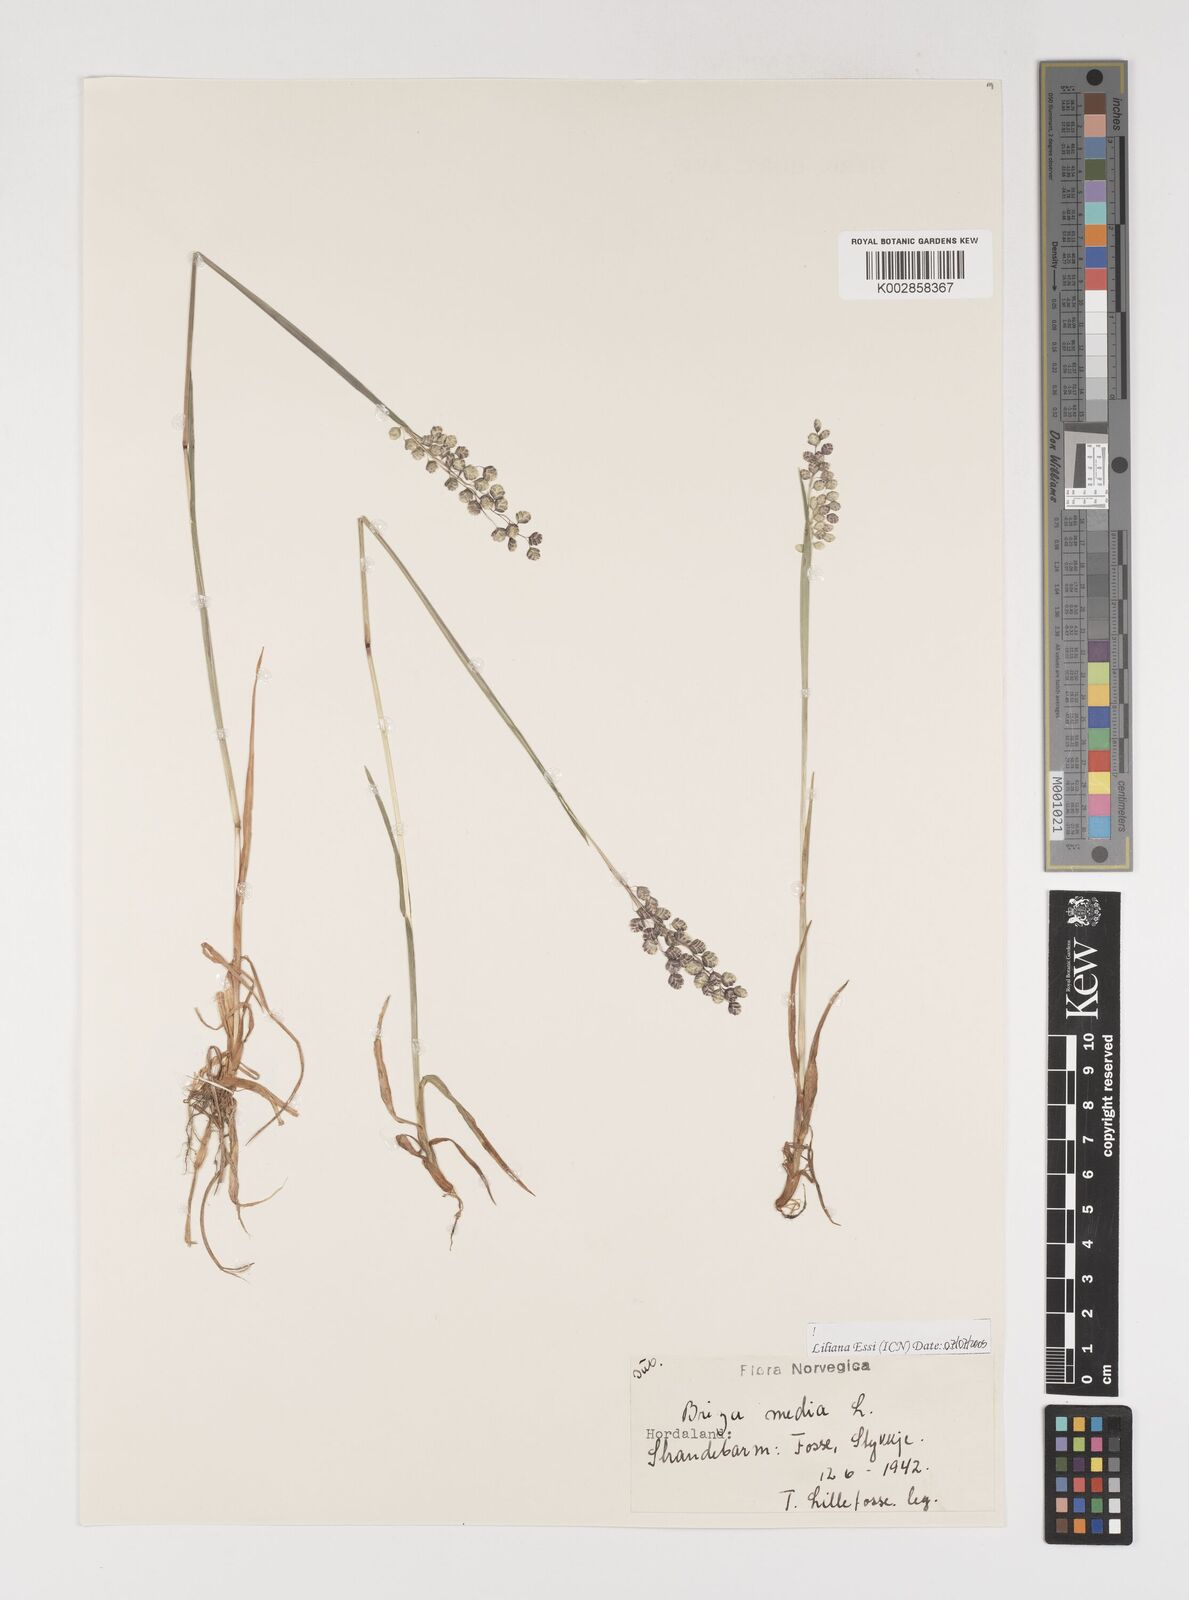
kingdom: Plantae
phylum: Tracheophyta
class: Liliopsida
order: Poales
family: Poaceae
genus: Briza
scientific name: Briza media
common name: Quaking grass
